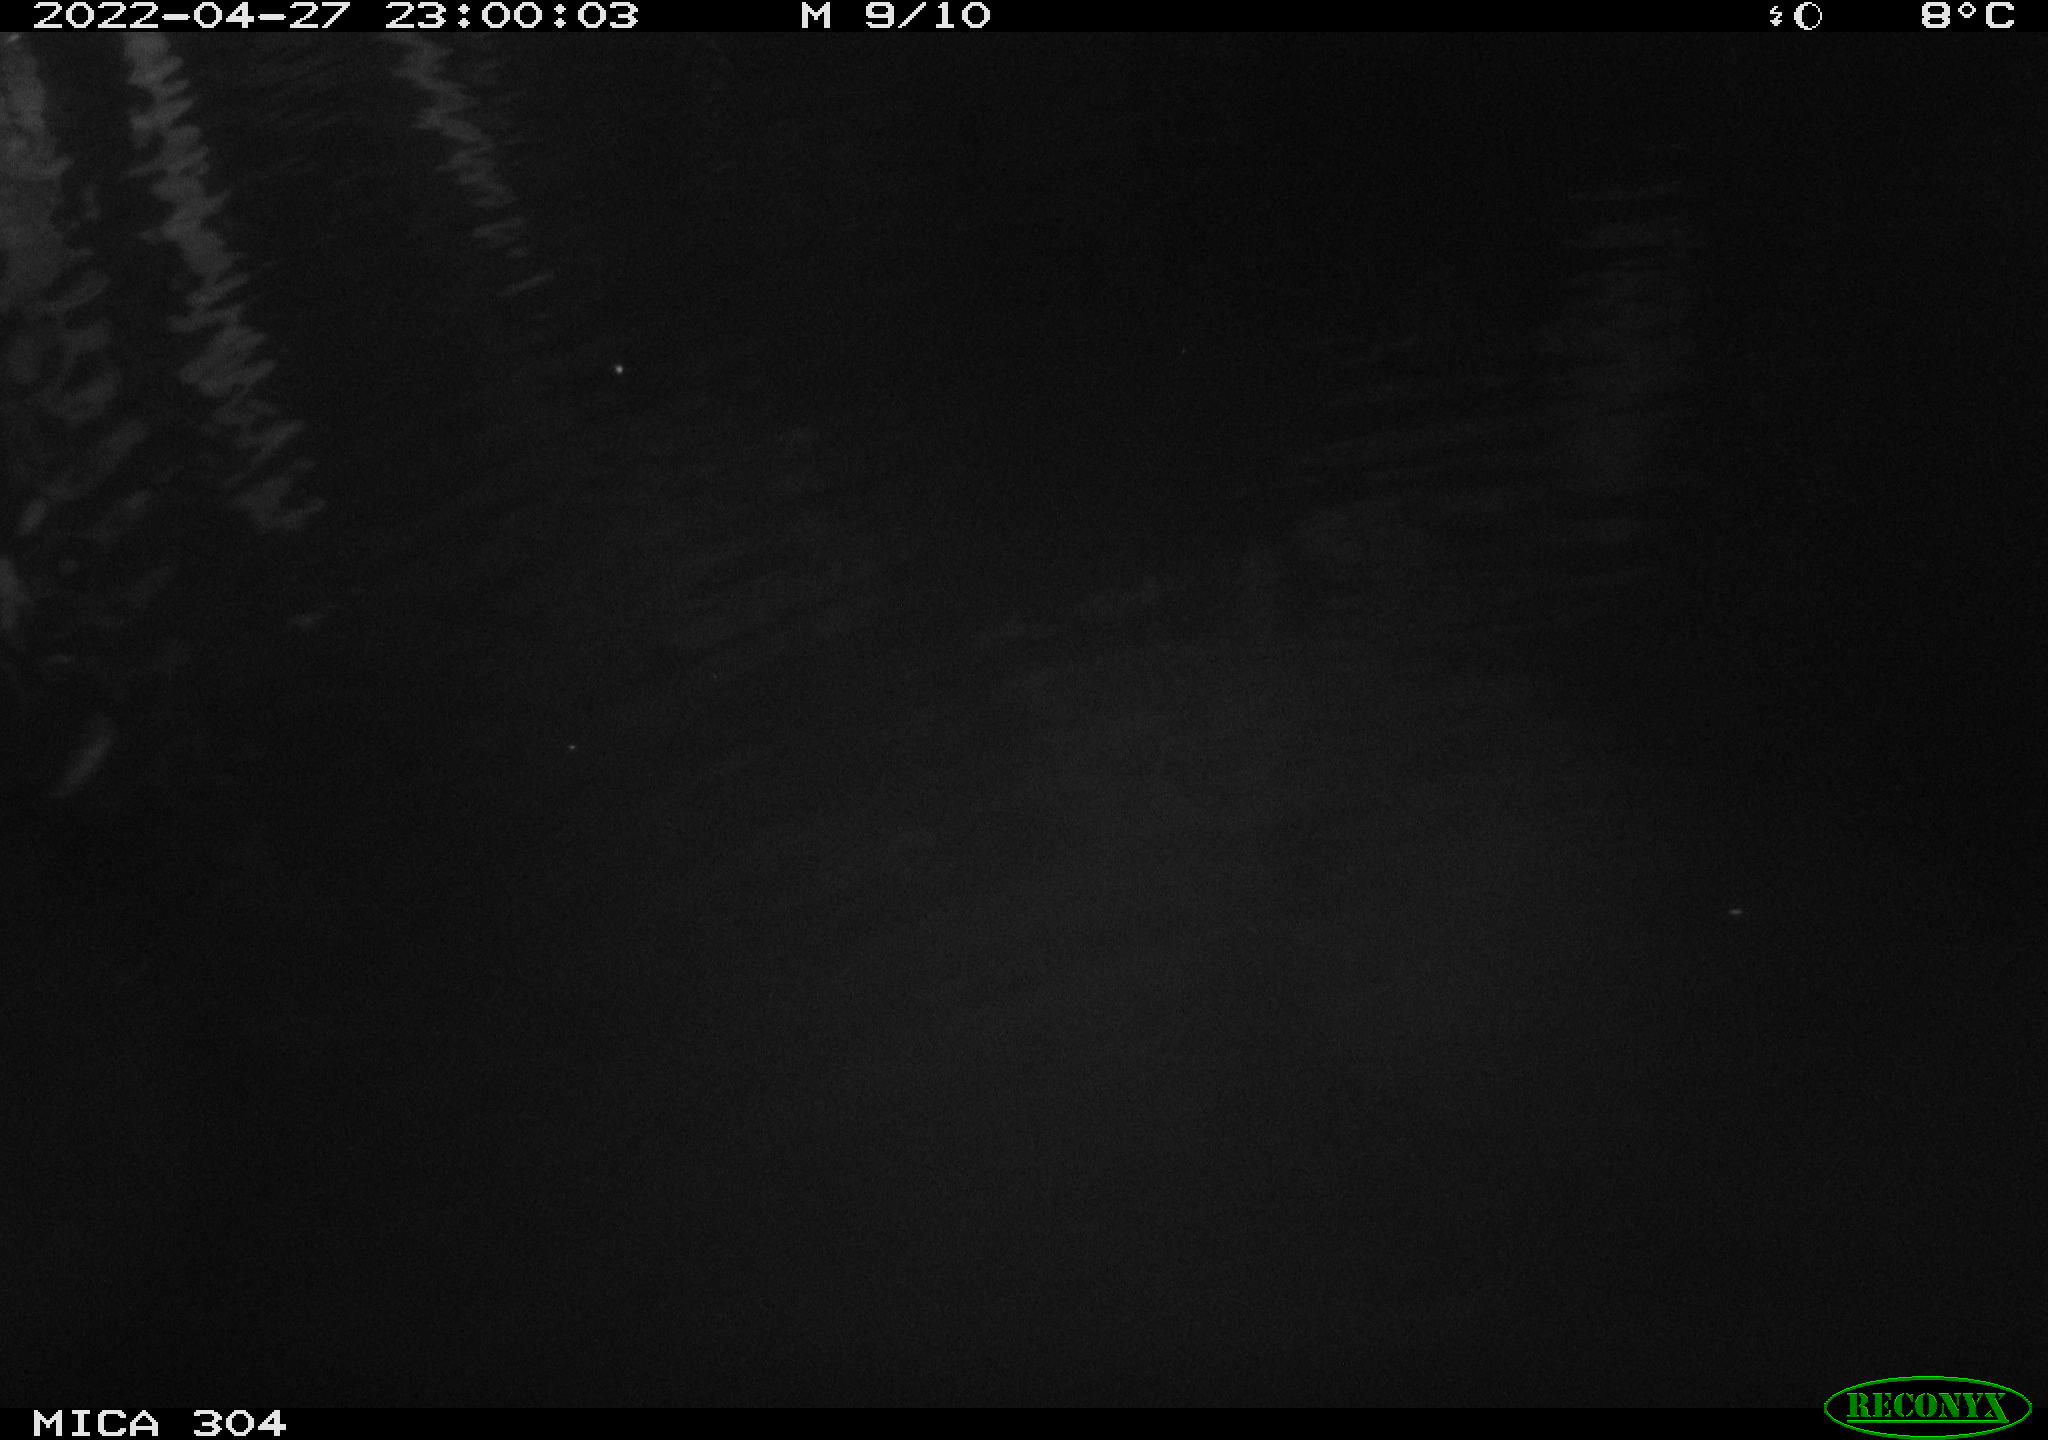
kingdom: Animalia
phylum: Chordata
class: Mammalia
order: Rodentia
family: Cricetidae
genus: Ondatra
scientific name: Ondatra zibethicus
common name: Muskrat
